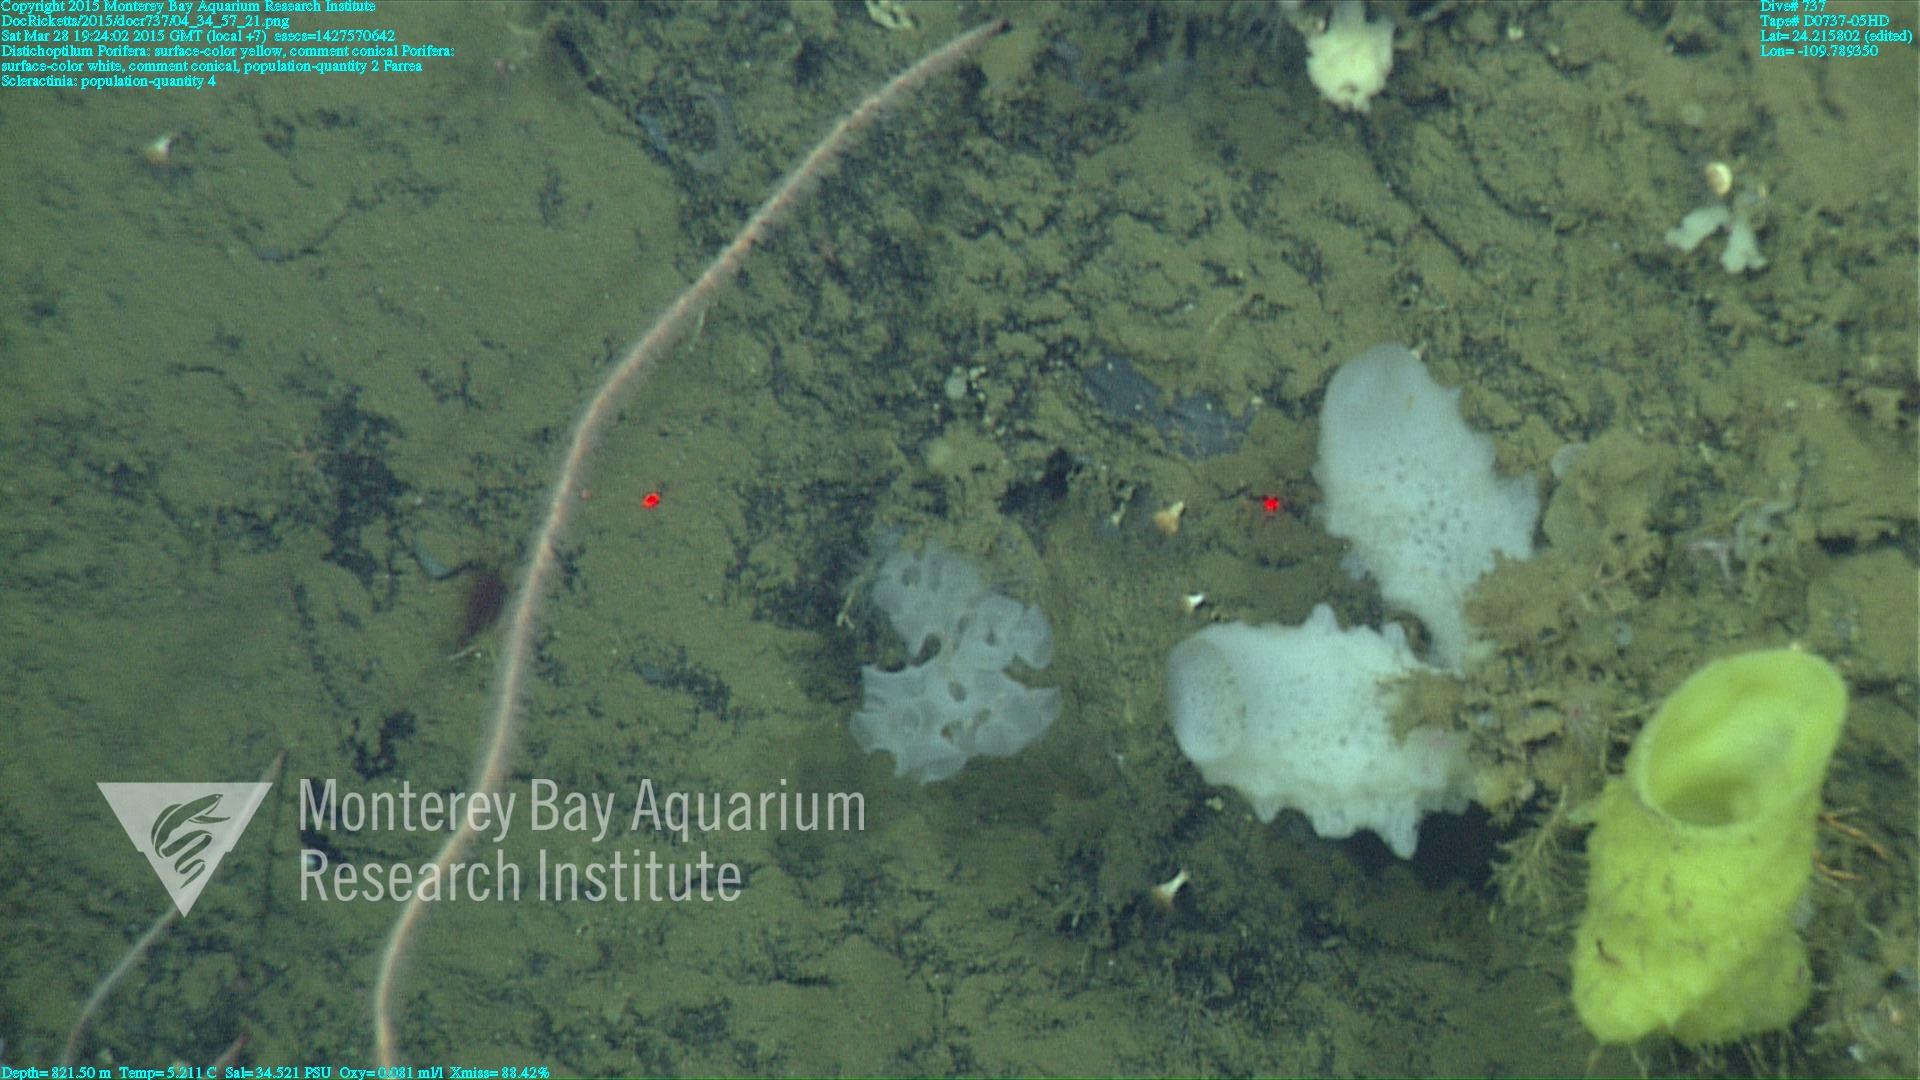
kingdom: Animalia
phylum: Cnidaria
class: Anthozoa
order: Scleractinia
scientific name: Scleractinia
